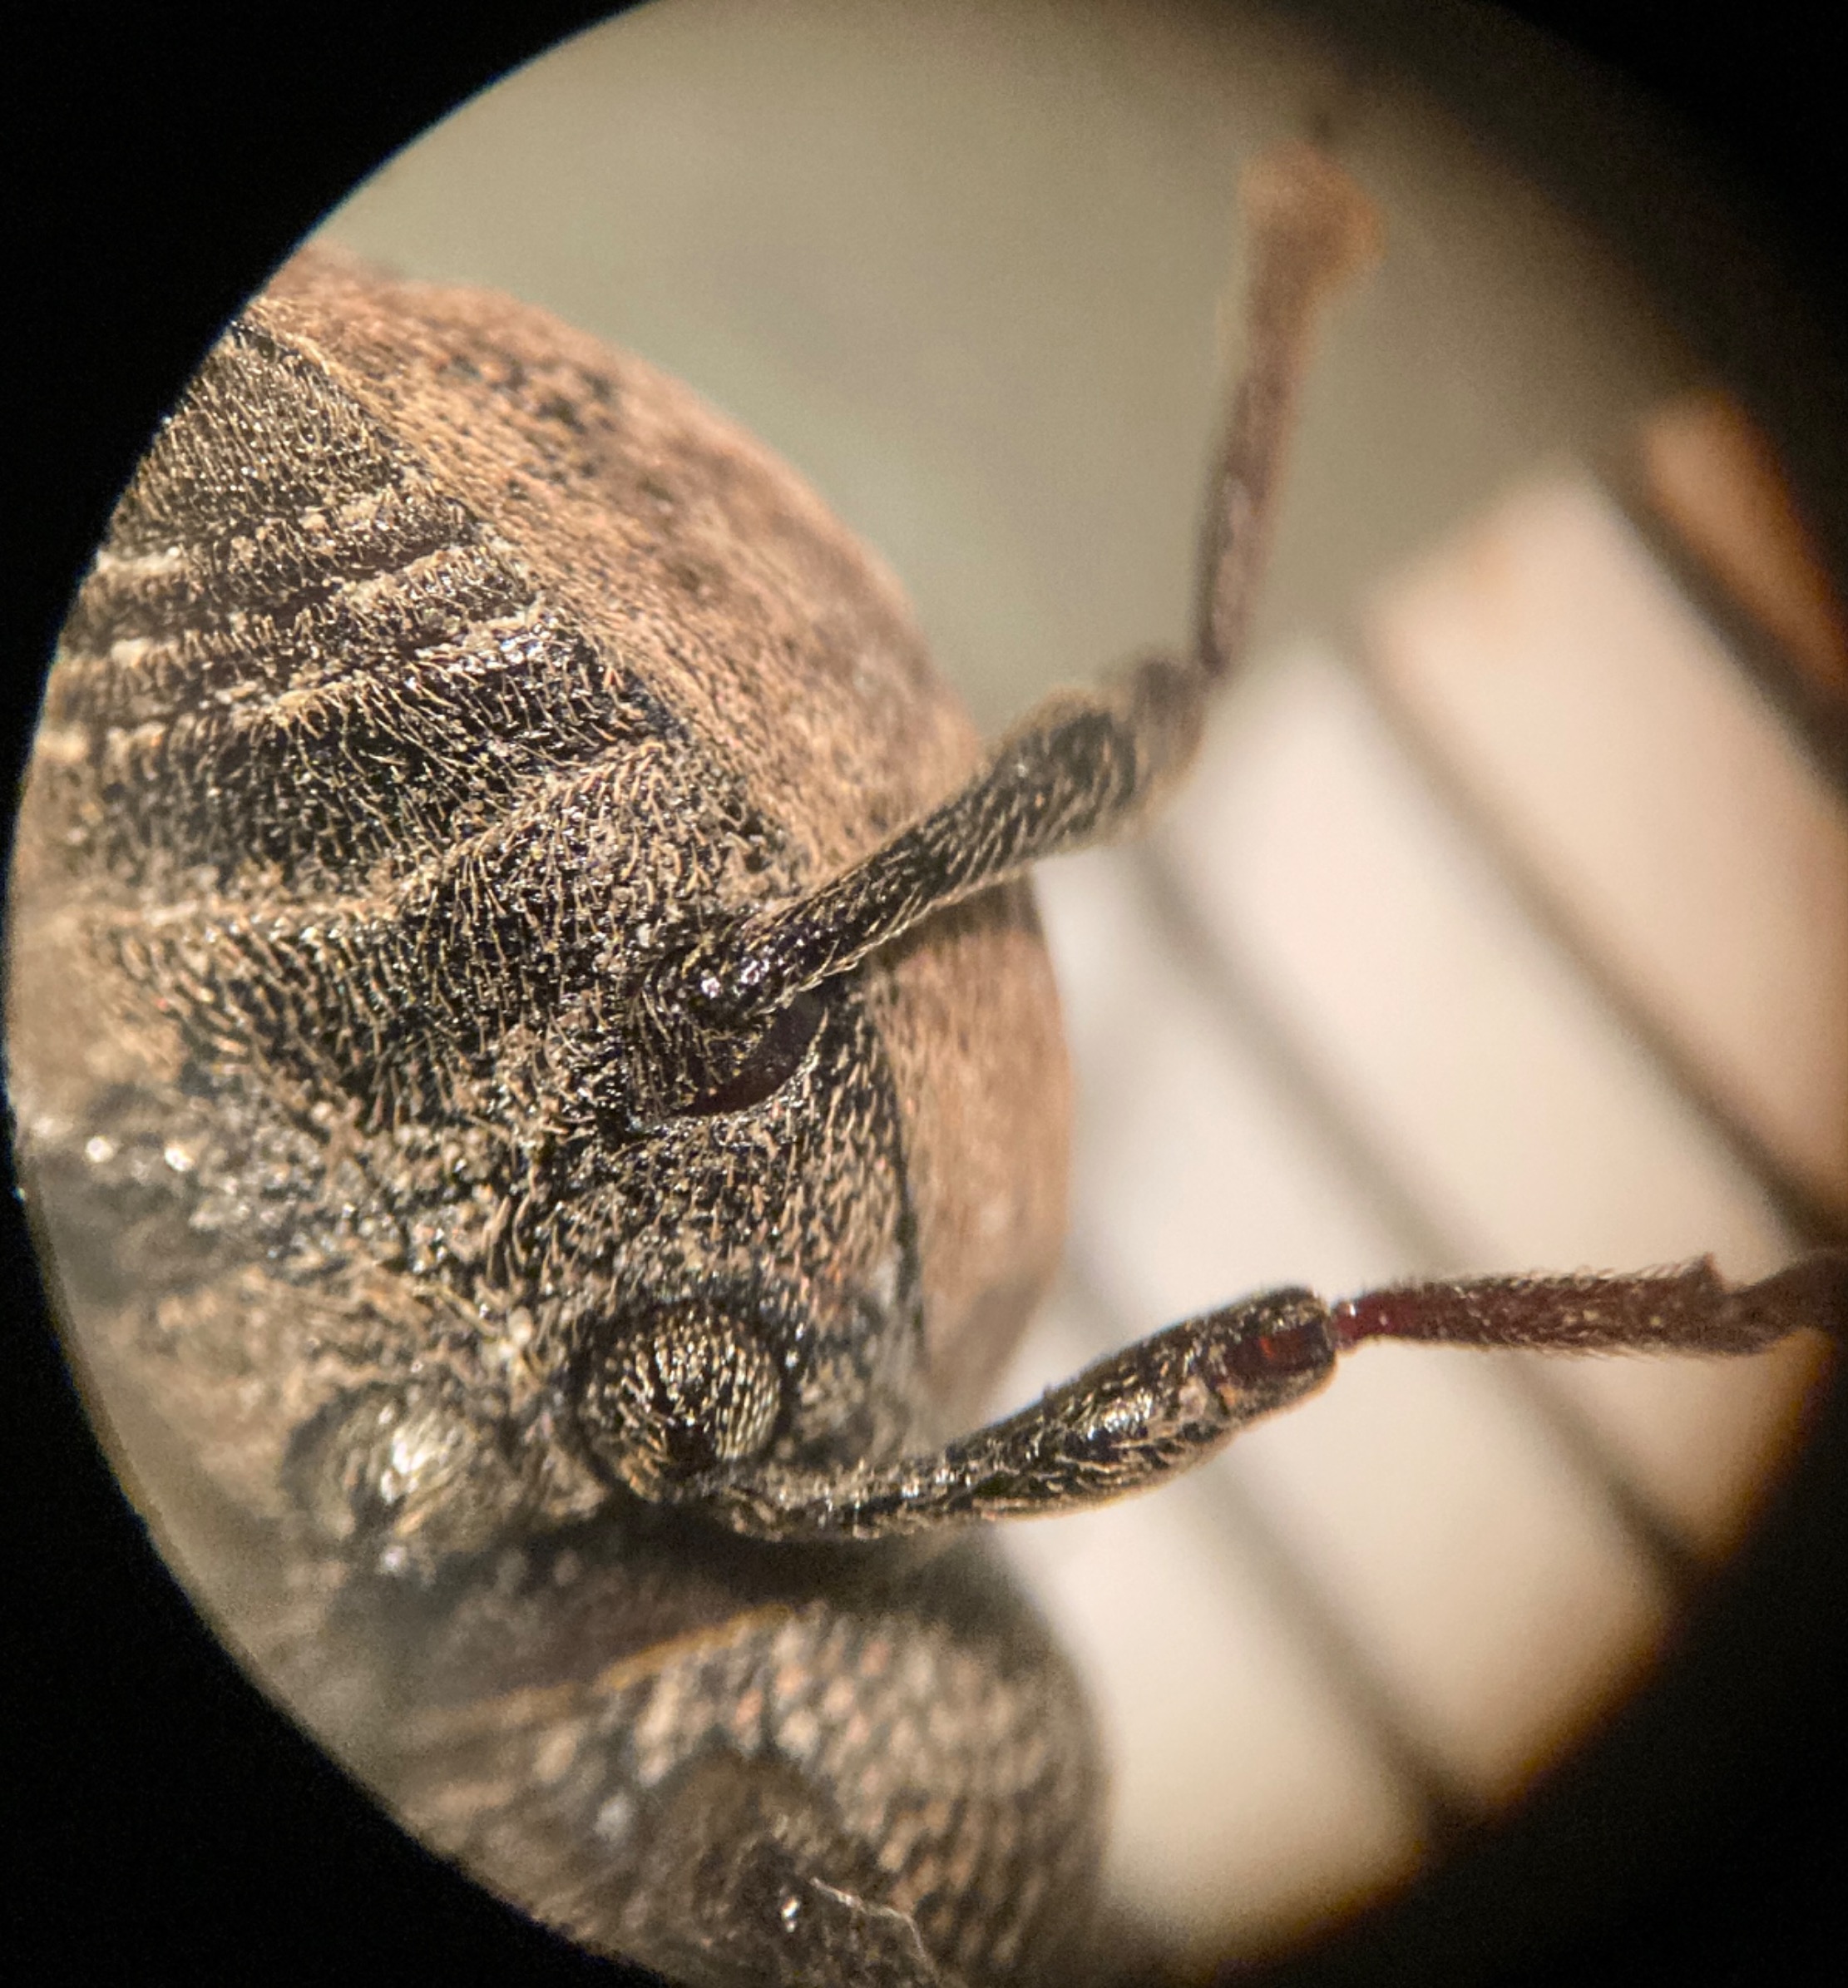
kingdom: Animalia
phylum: Arthropoda
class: Insecta
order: Coleoptera
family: Curculionidae
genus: Otiorhynchus
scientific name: Otiorhynchus raucus
